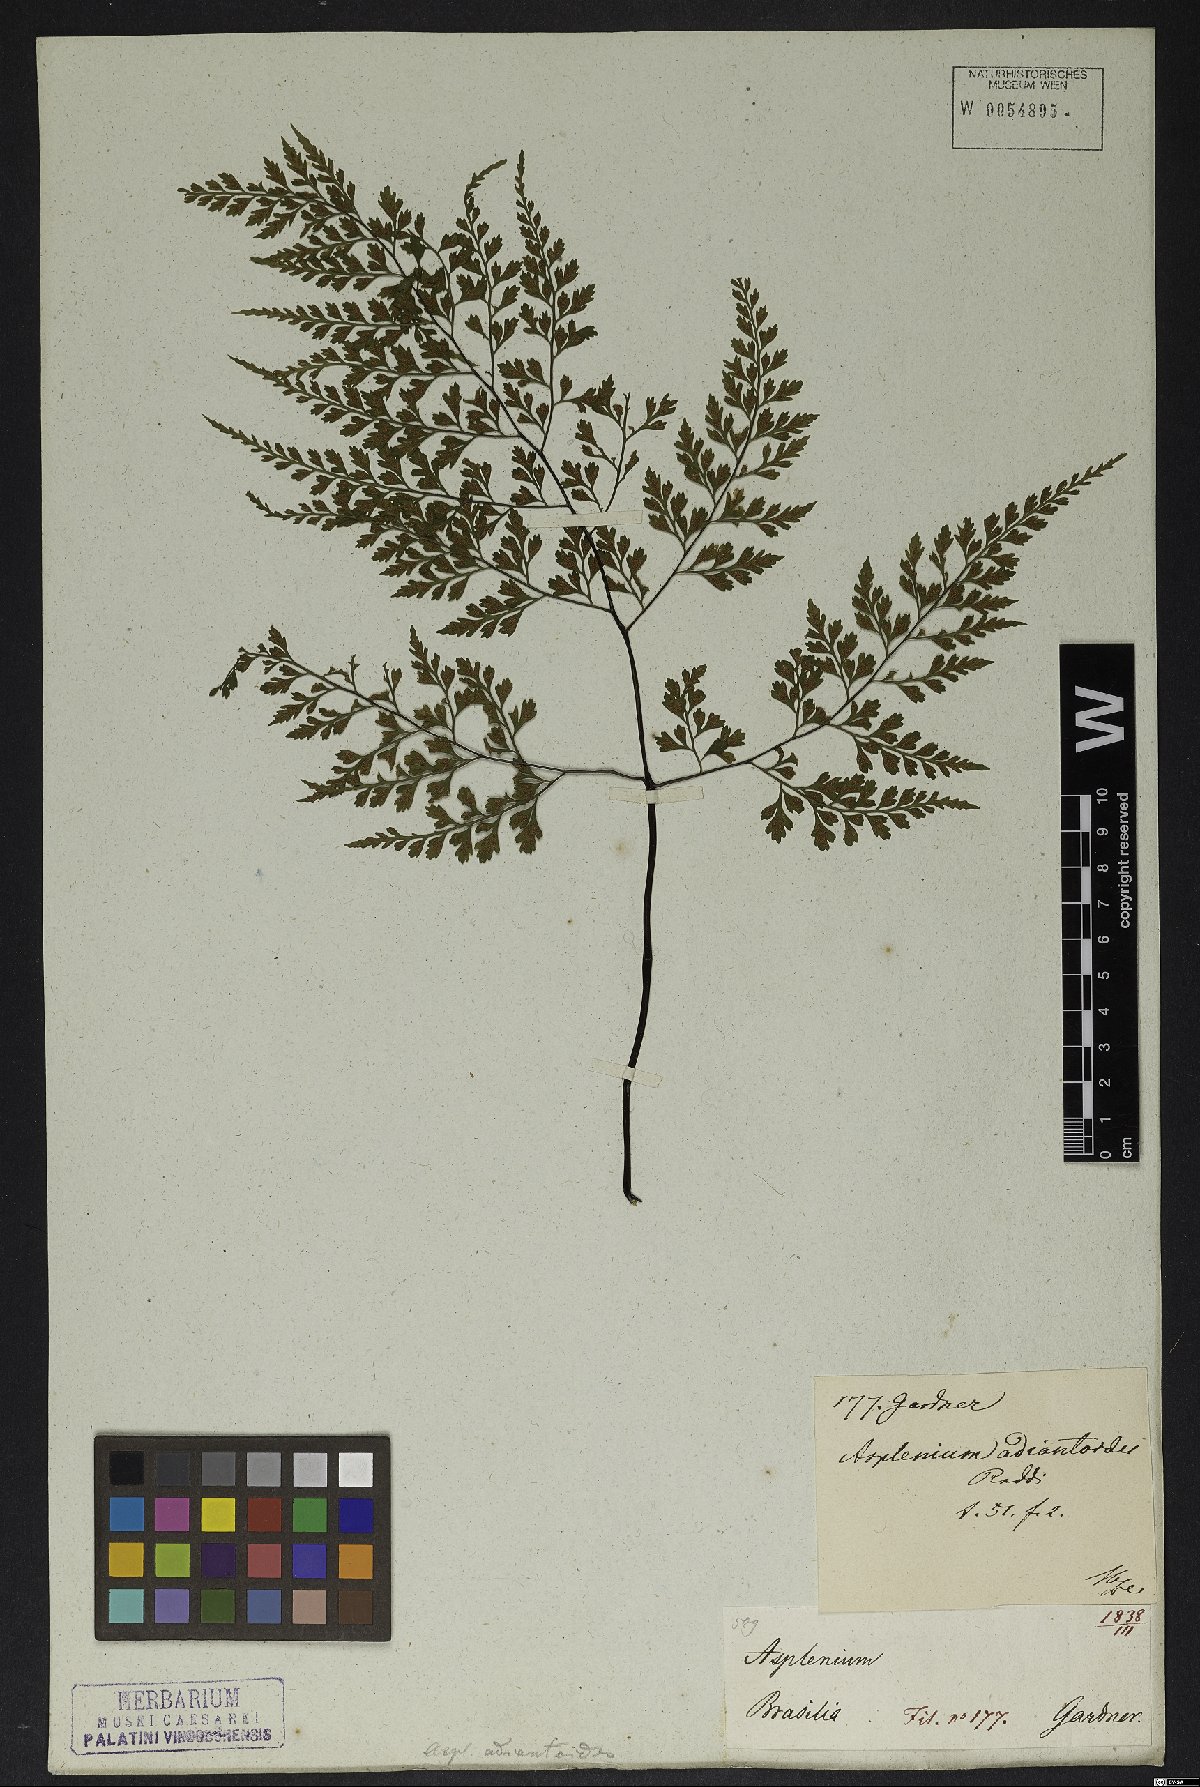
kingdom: Plantae
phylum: Tracheophyta
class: Polypodiopsida
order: Polypodiales
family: Aspleniaceae
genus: Asplenium
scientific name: Asplenium scandicinum
